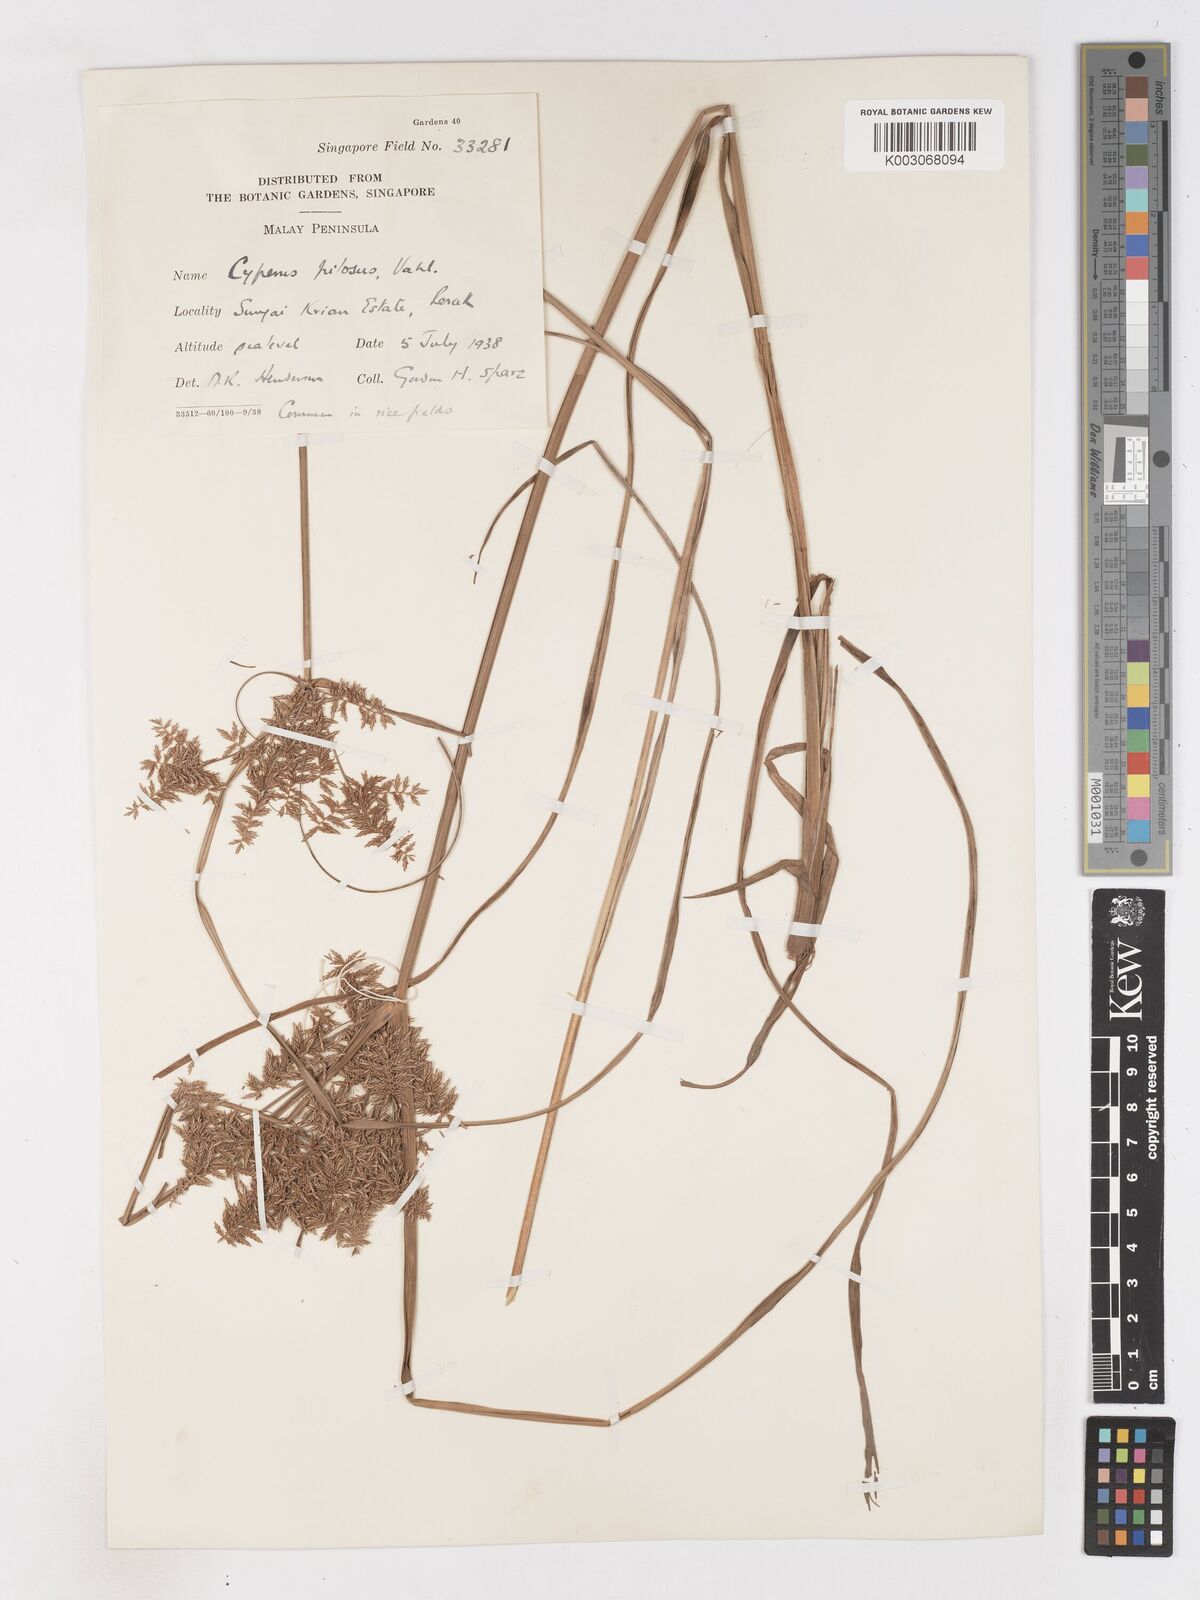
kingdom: Plantae
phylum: Tracheophyta
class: Liliopsida
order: Poales
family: Cyperaceae
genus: Cyperus
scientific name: Cyperus pilosus
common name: Fuzzy flatsedge
